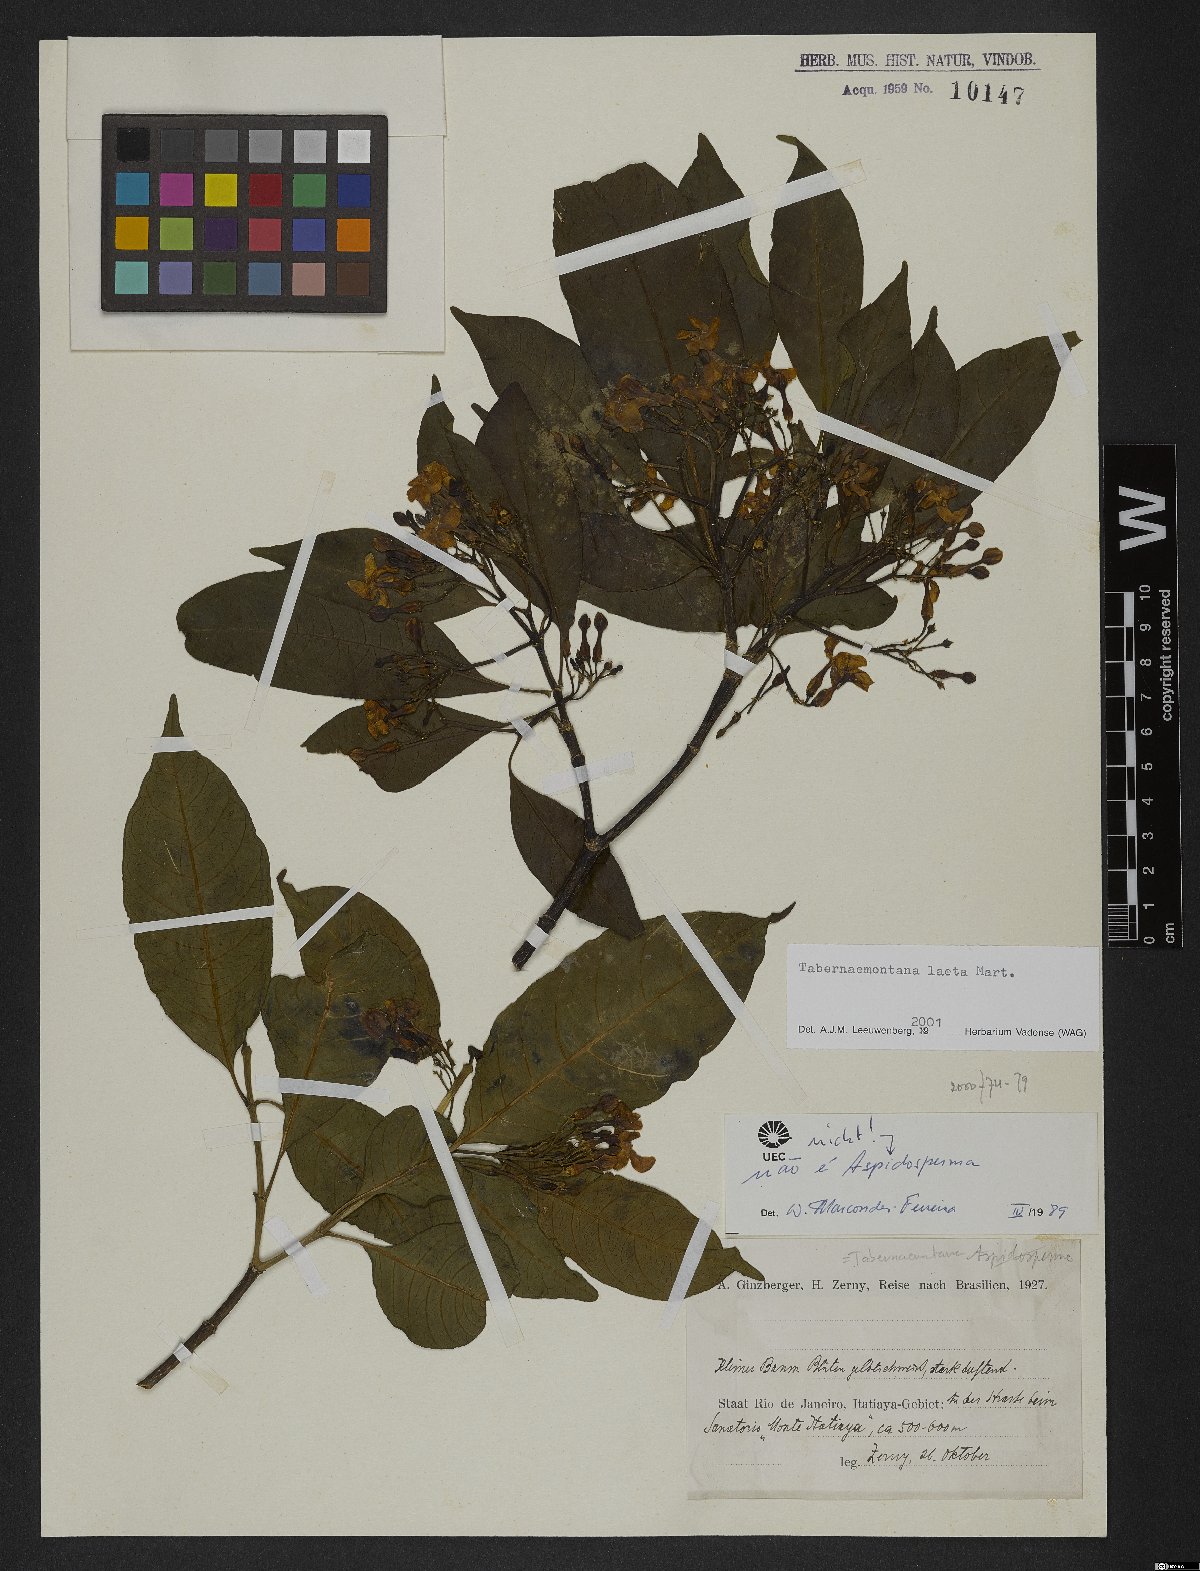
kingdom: Plantae
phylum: Tracheophyta
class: Magnoliopsida
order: Gentianales
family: Apocynaceae
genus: Tabernaemontana
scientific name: Tabernaemontana laeta
